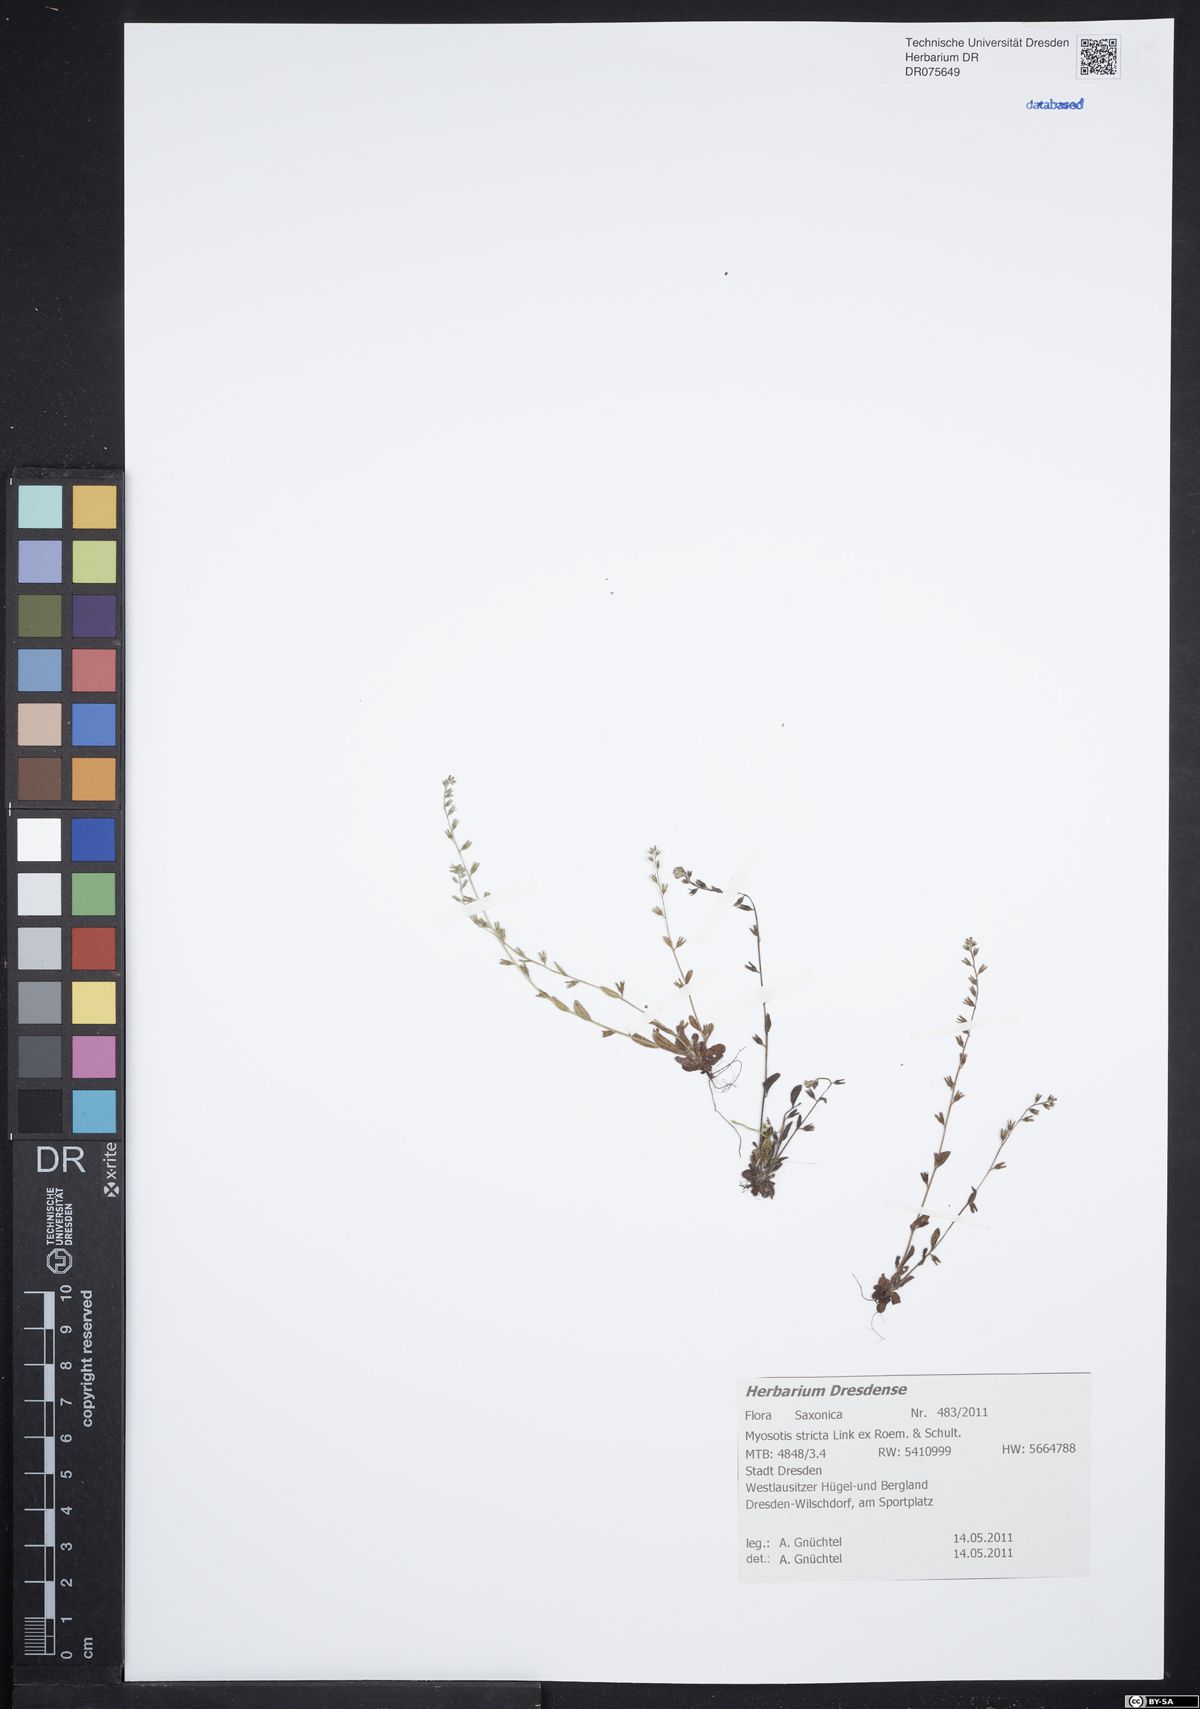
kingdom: Plantae
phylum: Tracheophyta
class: Magnoliopsida
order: Boraginales
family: Boraginaceae
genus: Myosotis
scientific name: Myosotis stricta
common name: Strict forget-me-not
